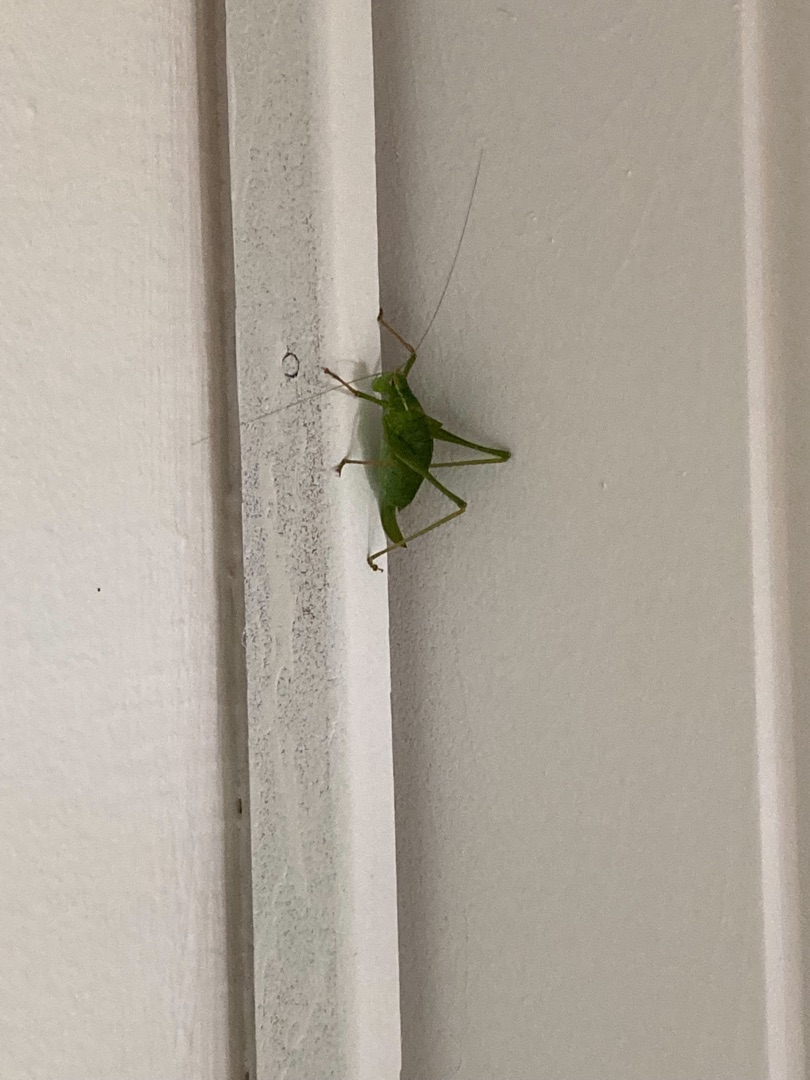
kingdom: Animalia
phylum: Arthropoda
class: Insecta
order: Orthoptera
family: Tettigoniidae
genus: Leptophyes
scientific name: Leptophyes punctatissima
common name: Krumknivgræshoppe
